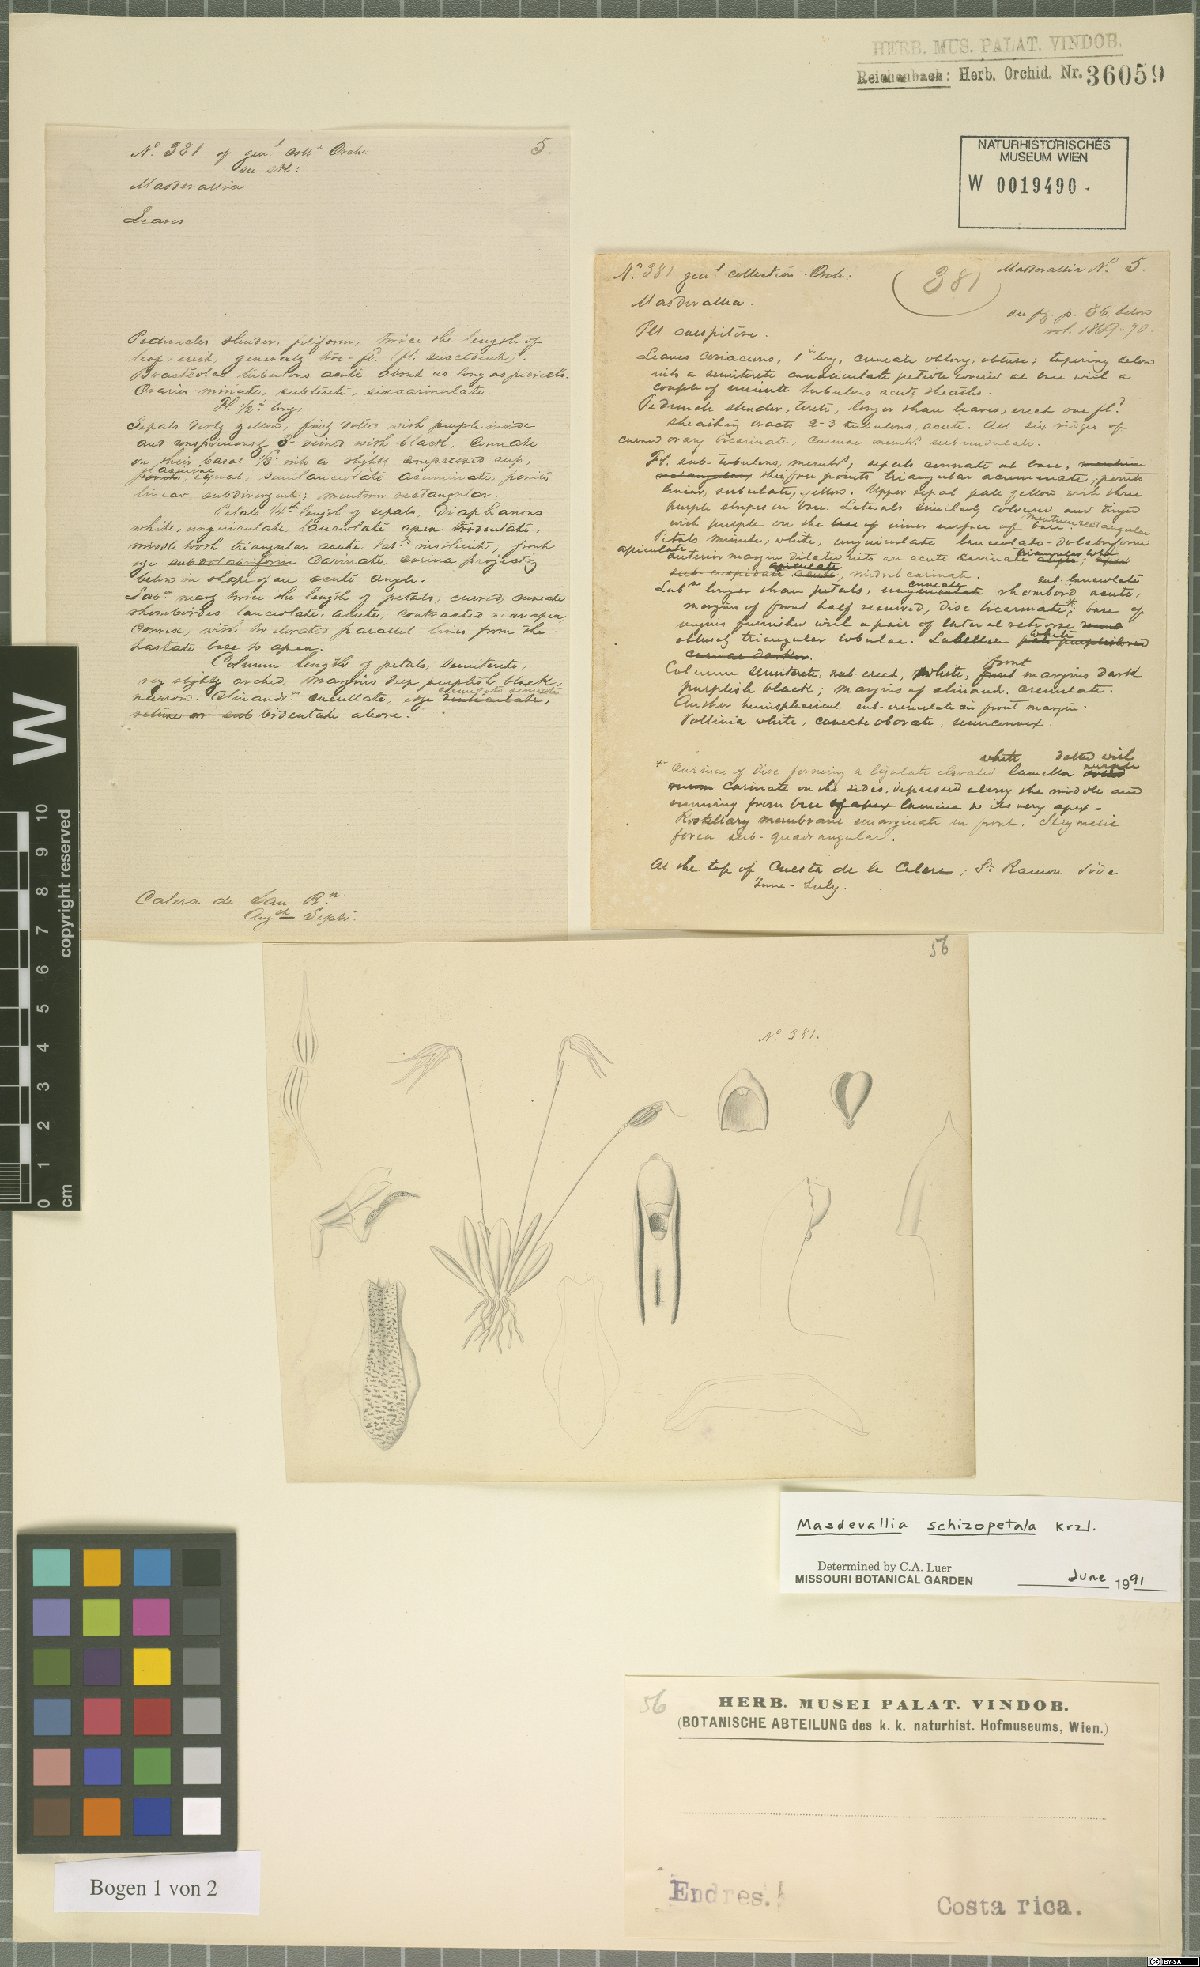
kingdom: Plantae
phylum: Tracheophyta
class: Liliopsida
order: Asparagales
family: Orchidaceae
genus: Masdevallia
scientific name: Masdevallia schizopetala
